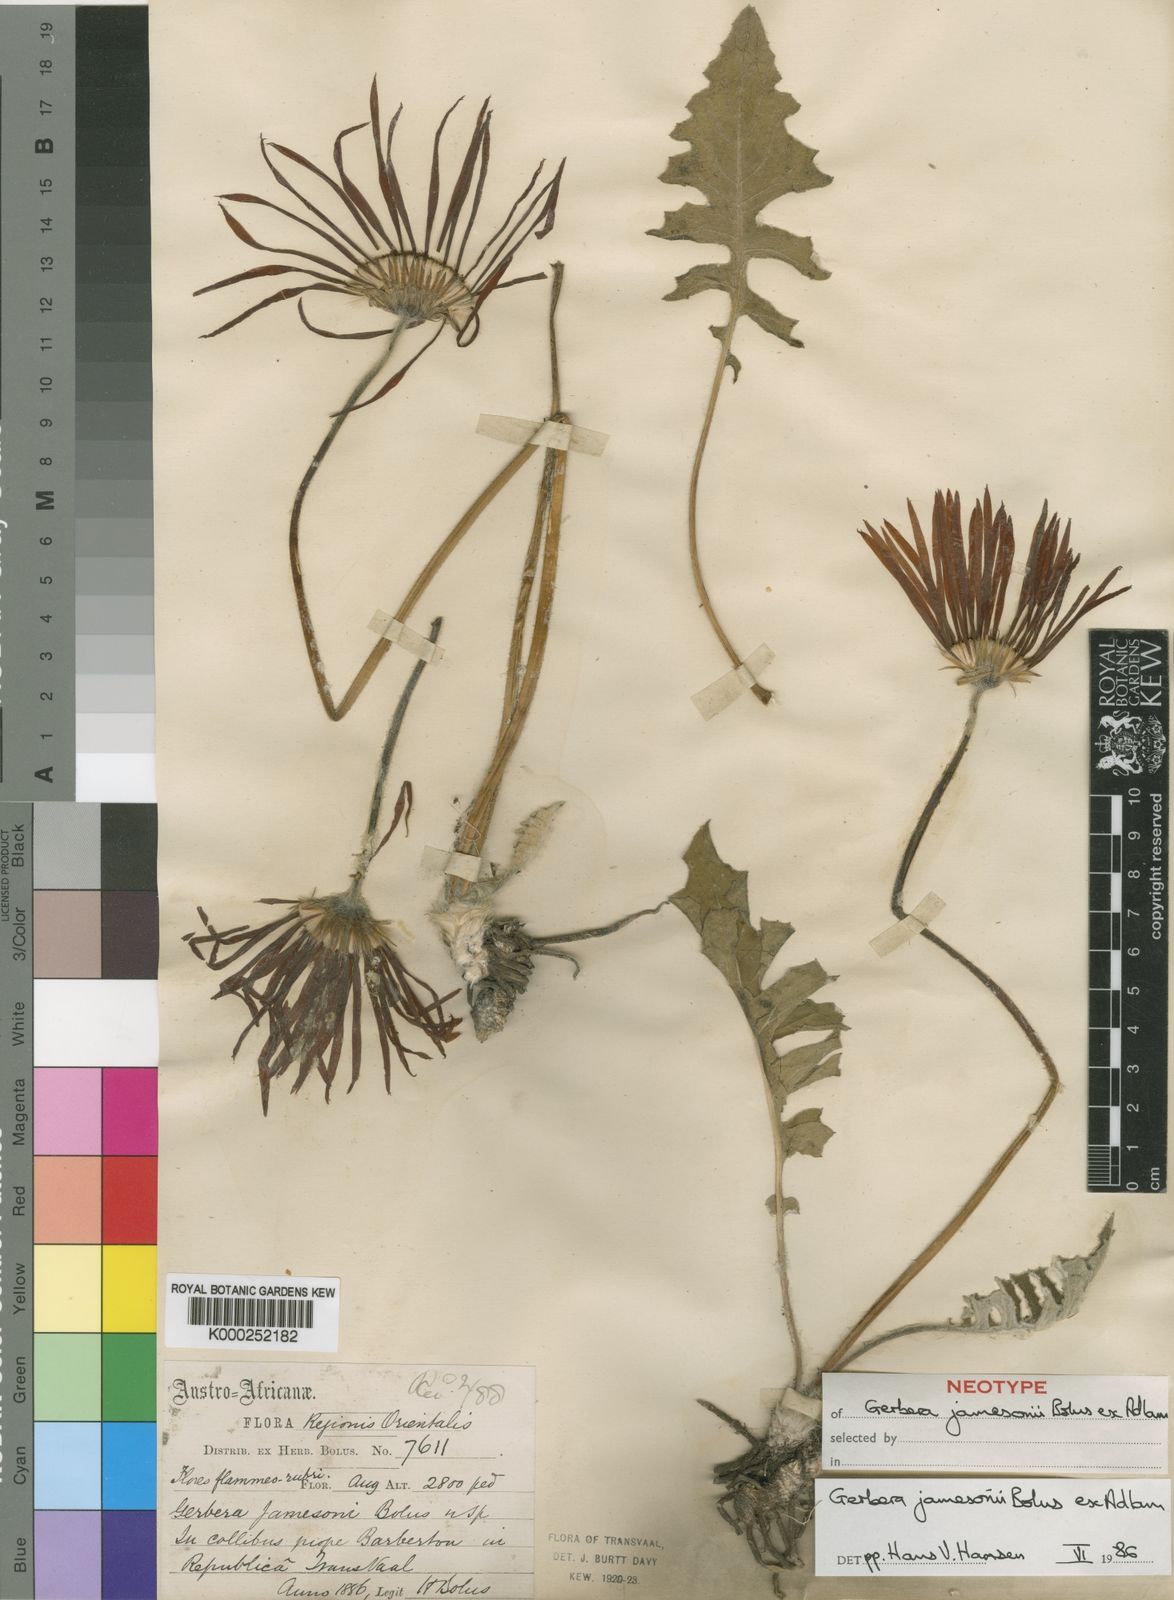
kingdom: Plantae
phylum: Tracheophyta
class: Magnoliopsida
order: Asterales
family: Asteraceae
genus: Gerbera
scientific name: Gerbera
